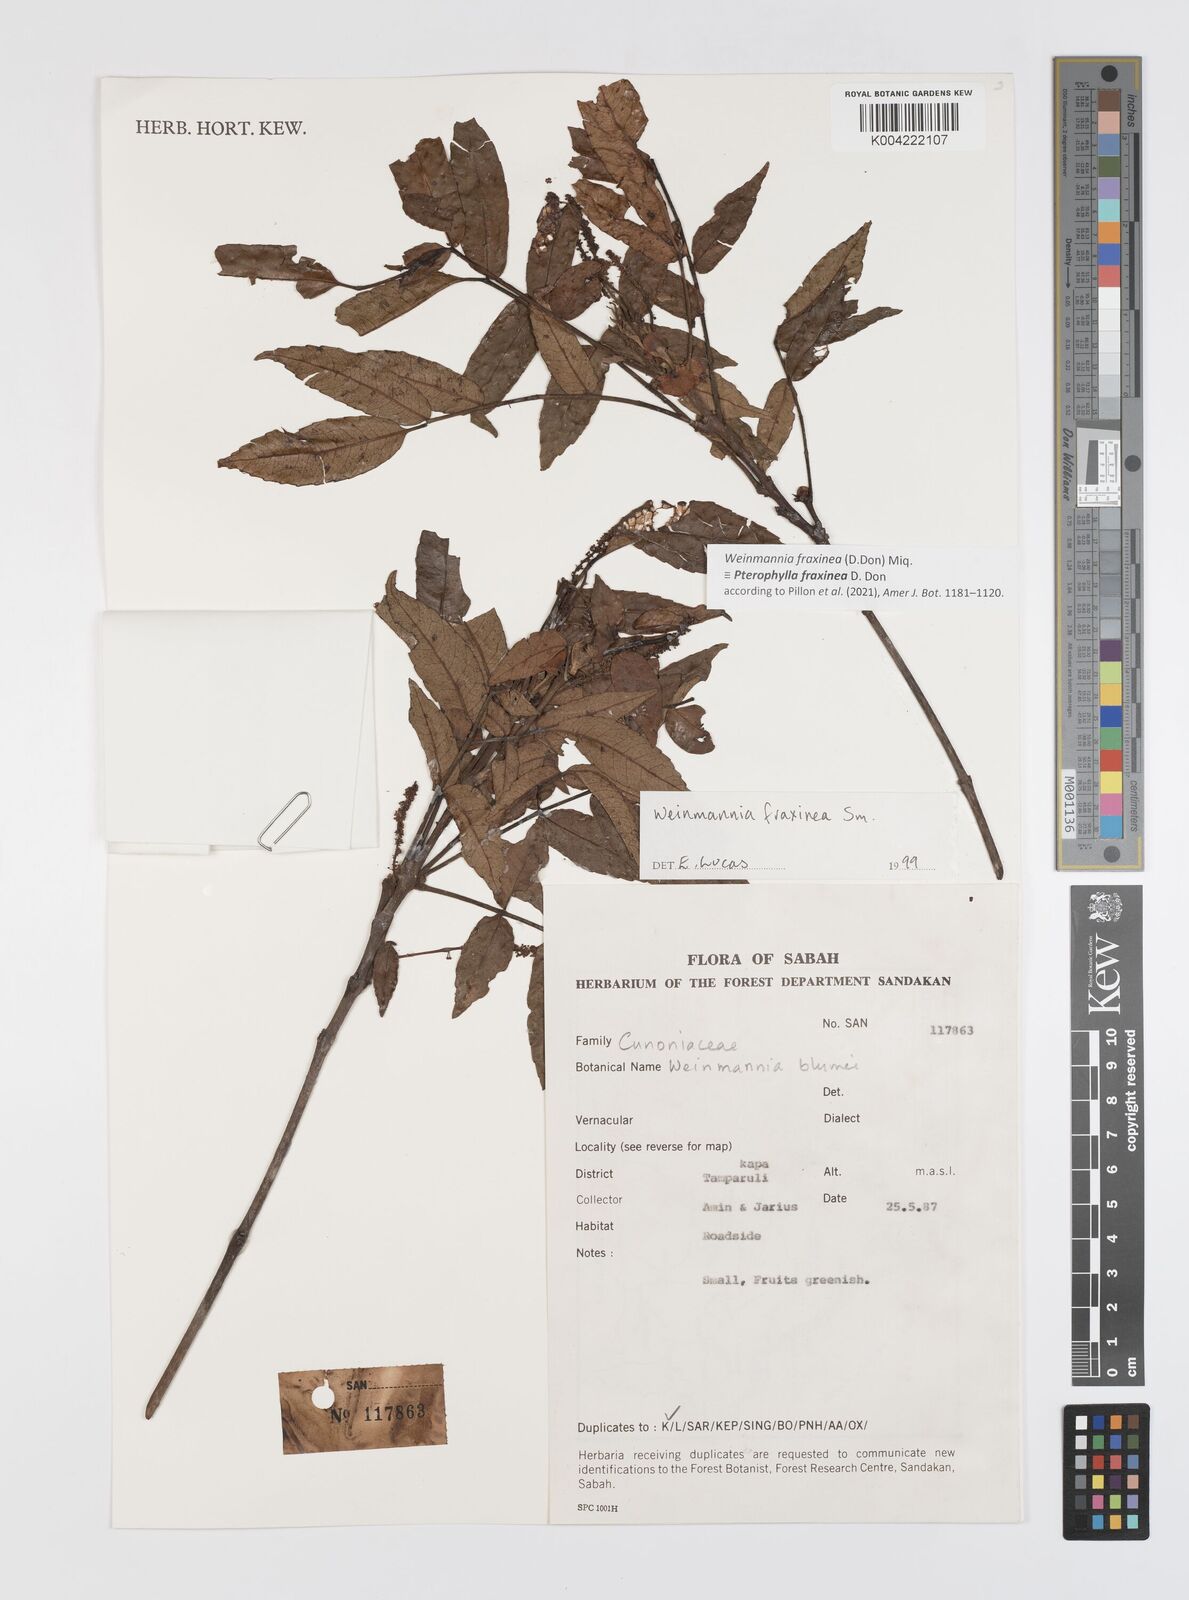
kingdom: Plantae
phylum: Tracheophyta
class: Magnoliopsida
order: Oxalidales
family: Cunoniaceae
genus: Pterophylla
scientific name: Pterophylla fraxinea
